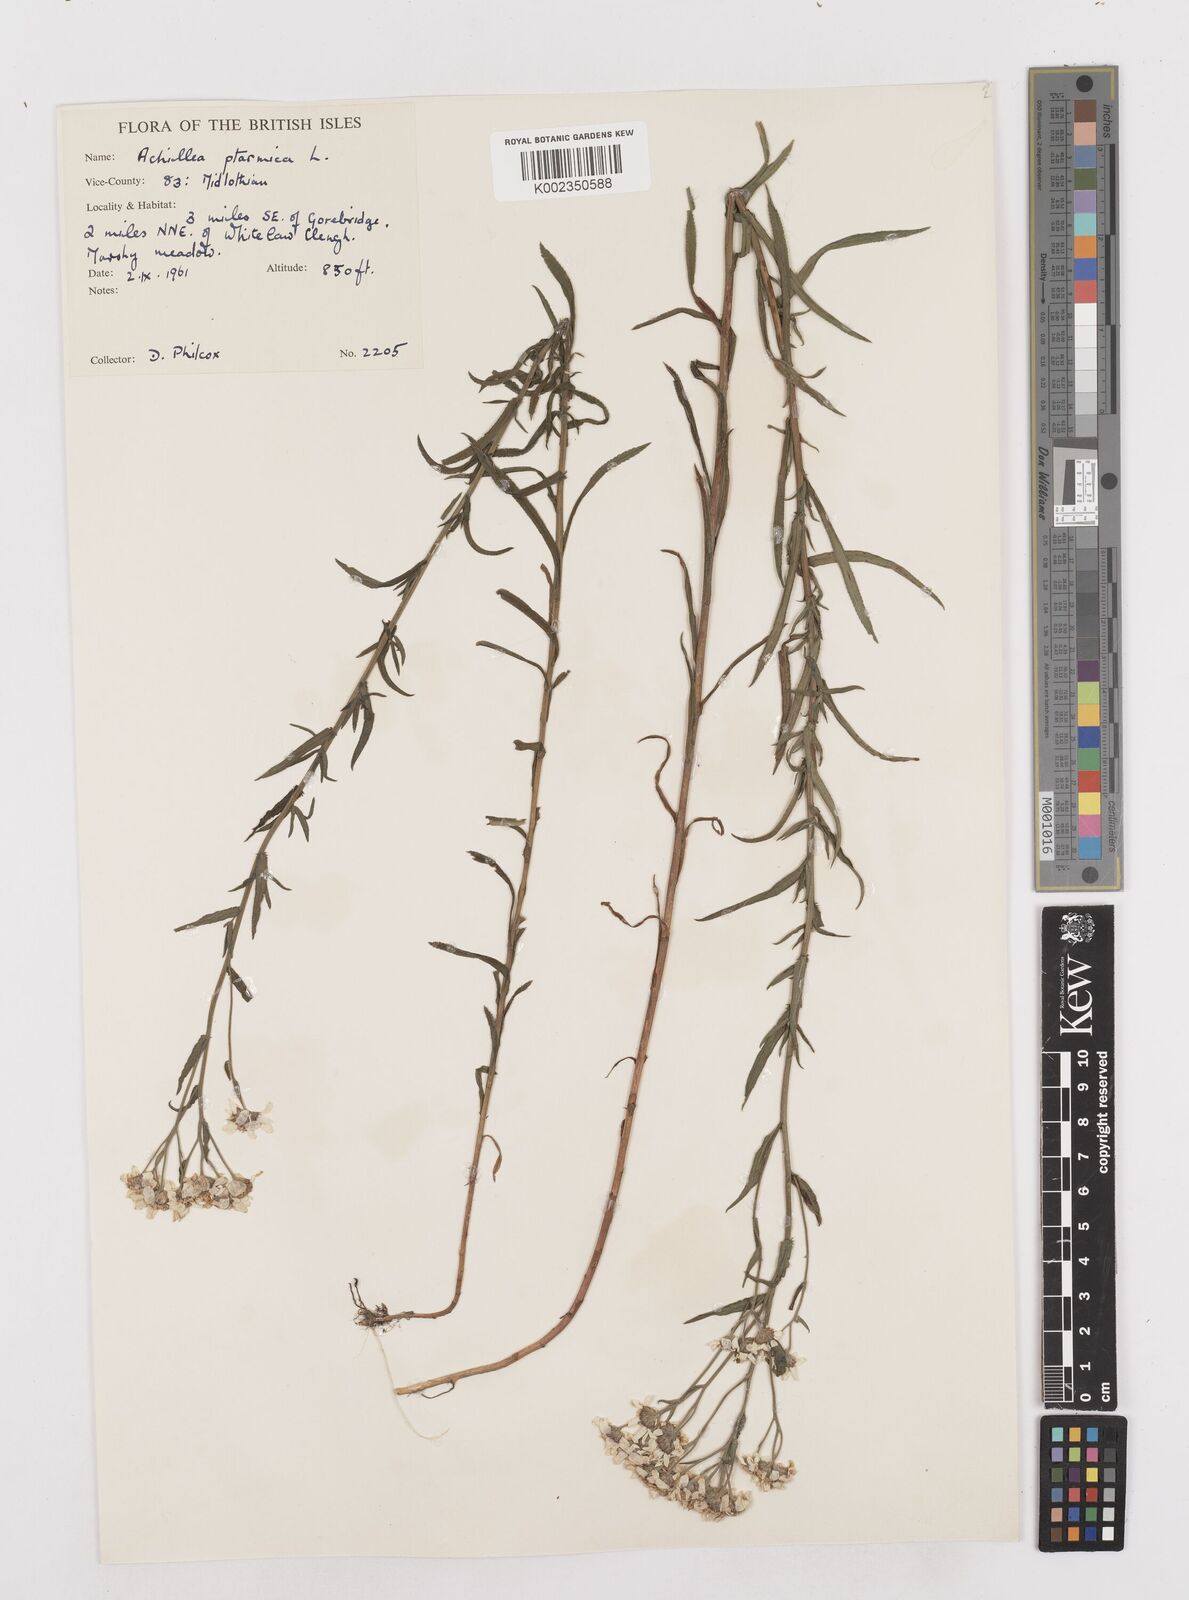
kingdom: Plantae
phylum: Tracheophyta
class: Magnoliopsida
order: Asterales
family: Asteraceae
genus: Achillea
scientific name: Achillea
